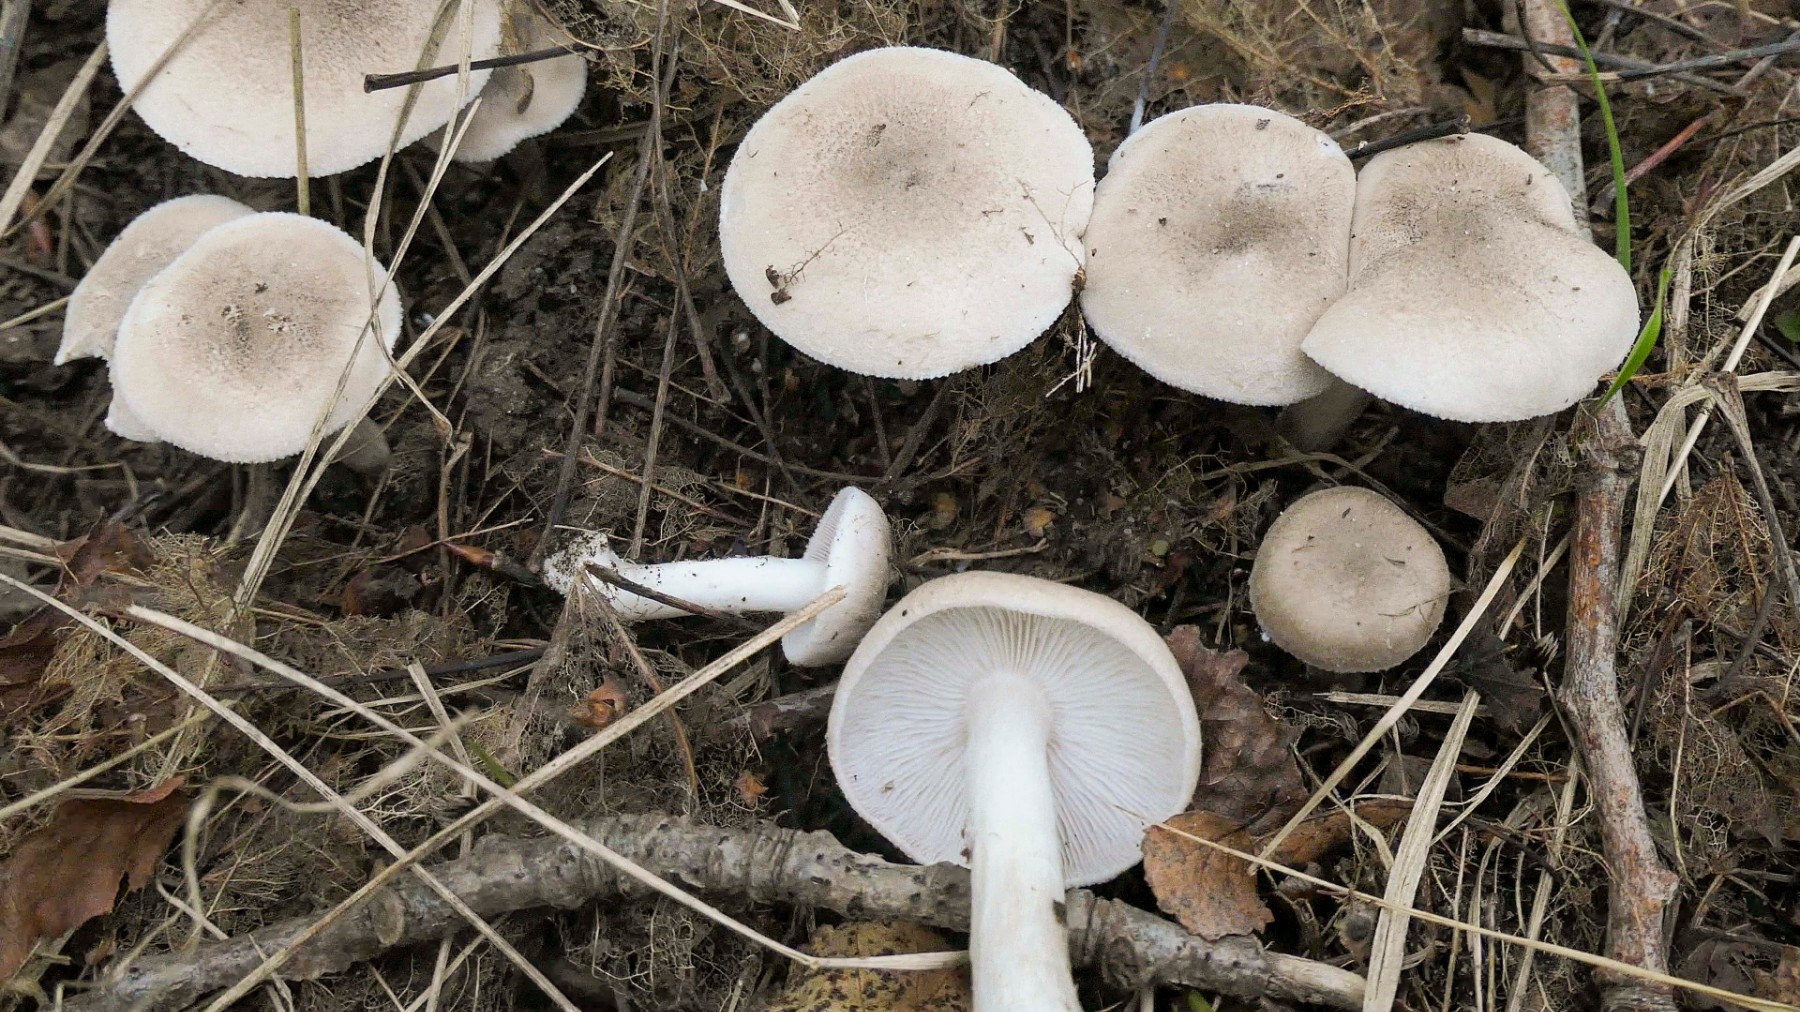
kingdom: Fungi
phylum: Basidiomycota
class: Agaricomycetes
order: Agaricales
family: Tricholomataceae
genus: Tricholoma
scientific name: Tricholoma argyraceum
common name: slør-ridderhat
